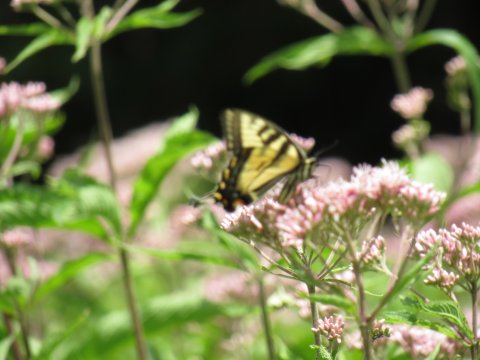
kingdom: Animalia
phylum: Arthropoda
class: Insecta
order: Lepidoptera
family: Papilionidae
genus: Pterourus
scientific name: Pterourus
